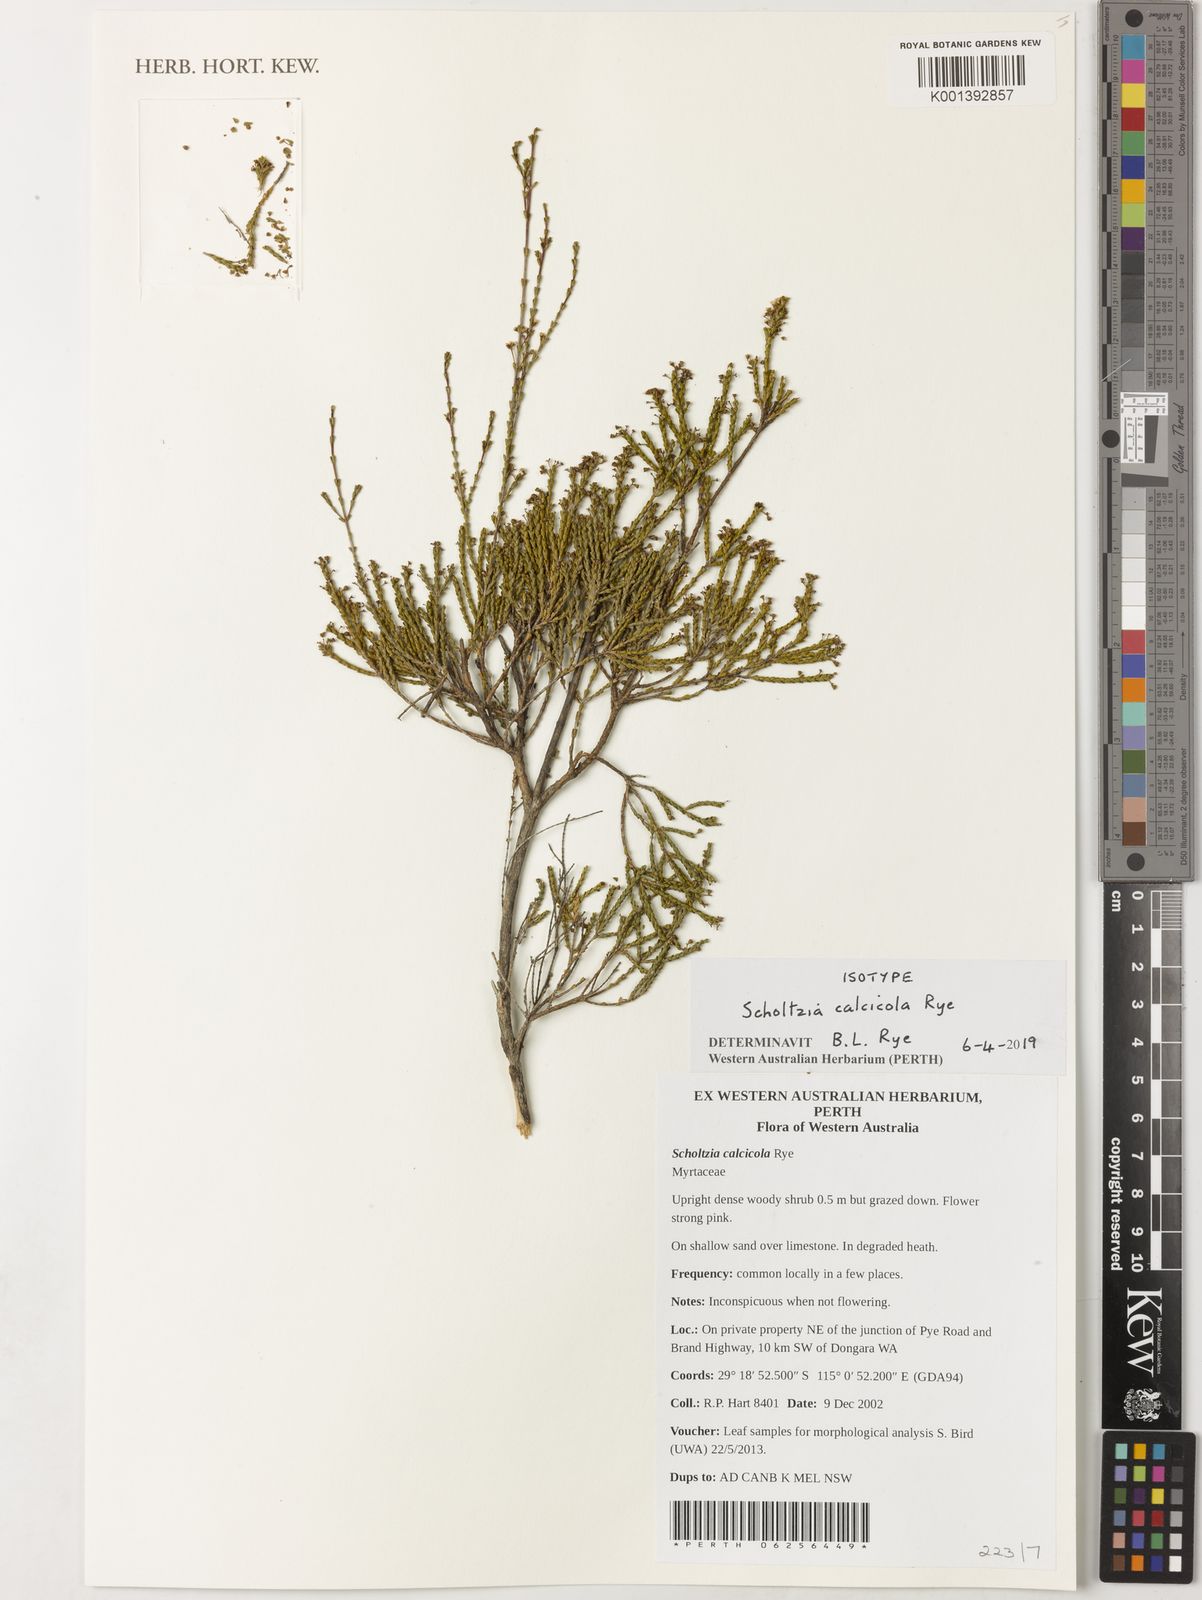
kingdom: Plantae
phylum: Tracheophyta
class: Magnoliopsida
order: Myrtales
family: Myrtaceae
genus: Scholtzia
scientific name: Scholtzia
